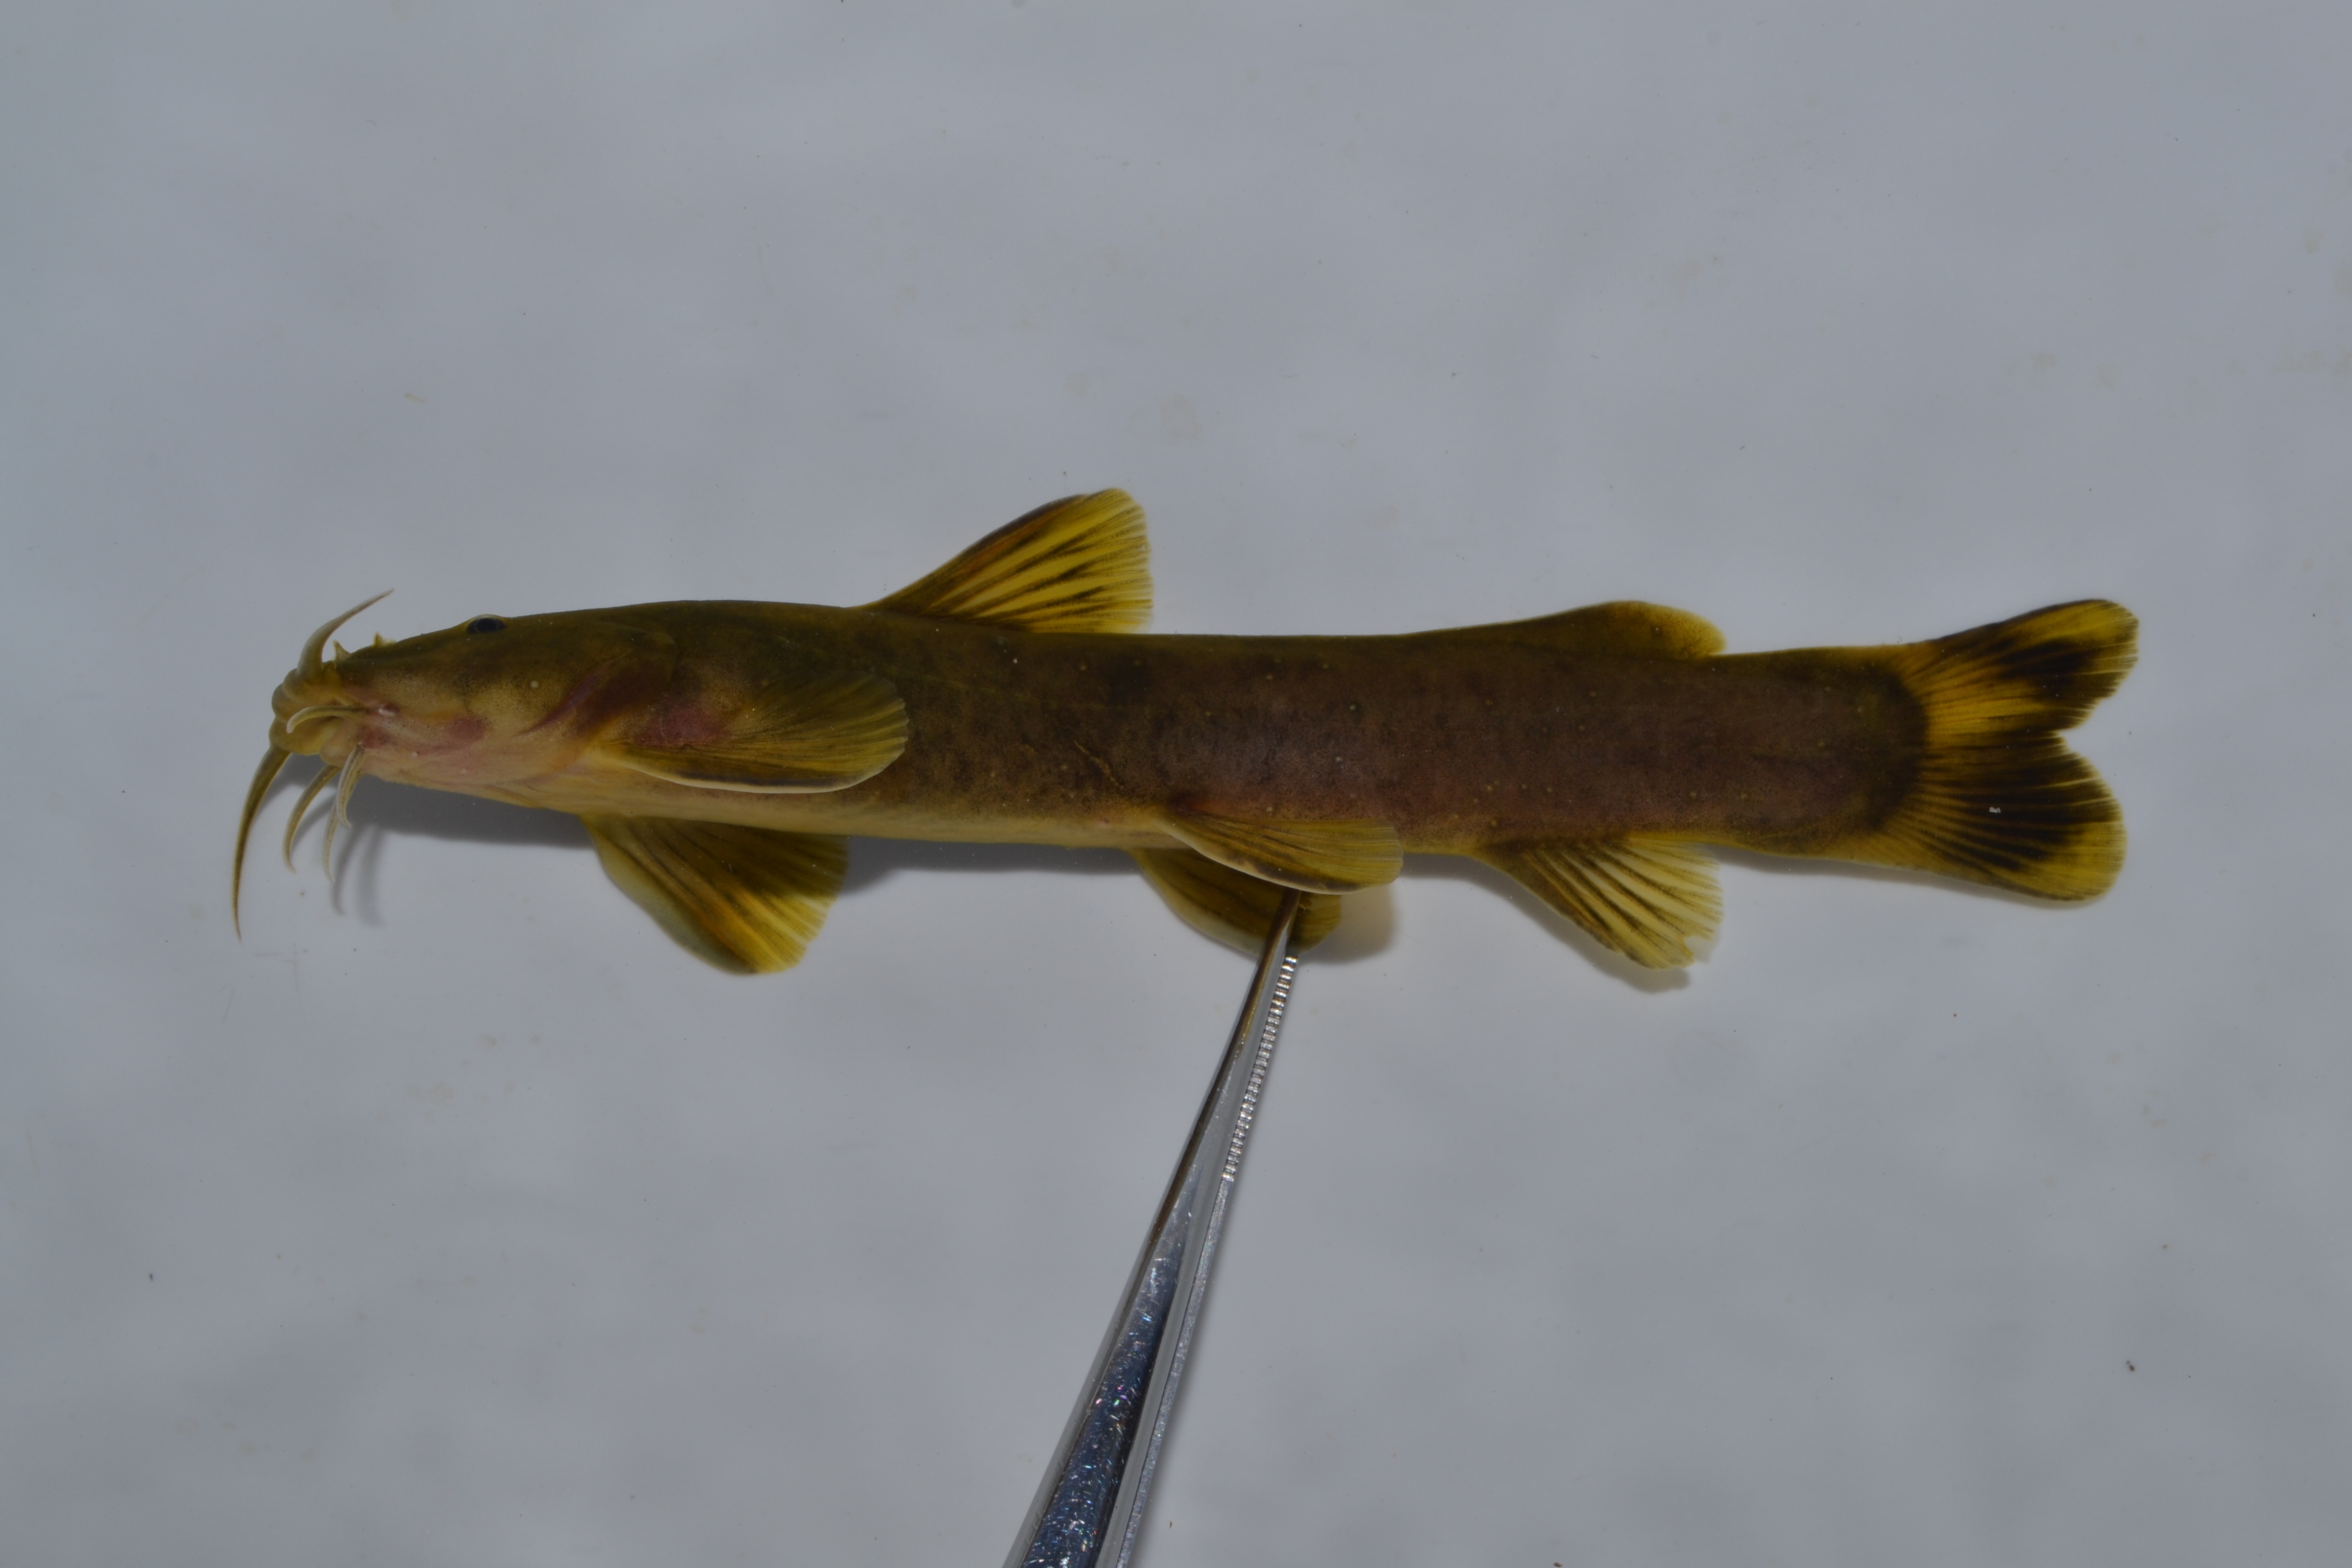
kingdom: Animalia
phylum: Chordata
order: Siluriformes
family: Amphiliidae
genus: Amphilius
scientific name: Amphilius uranoscopus
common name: Stargazer mountain catfish
